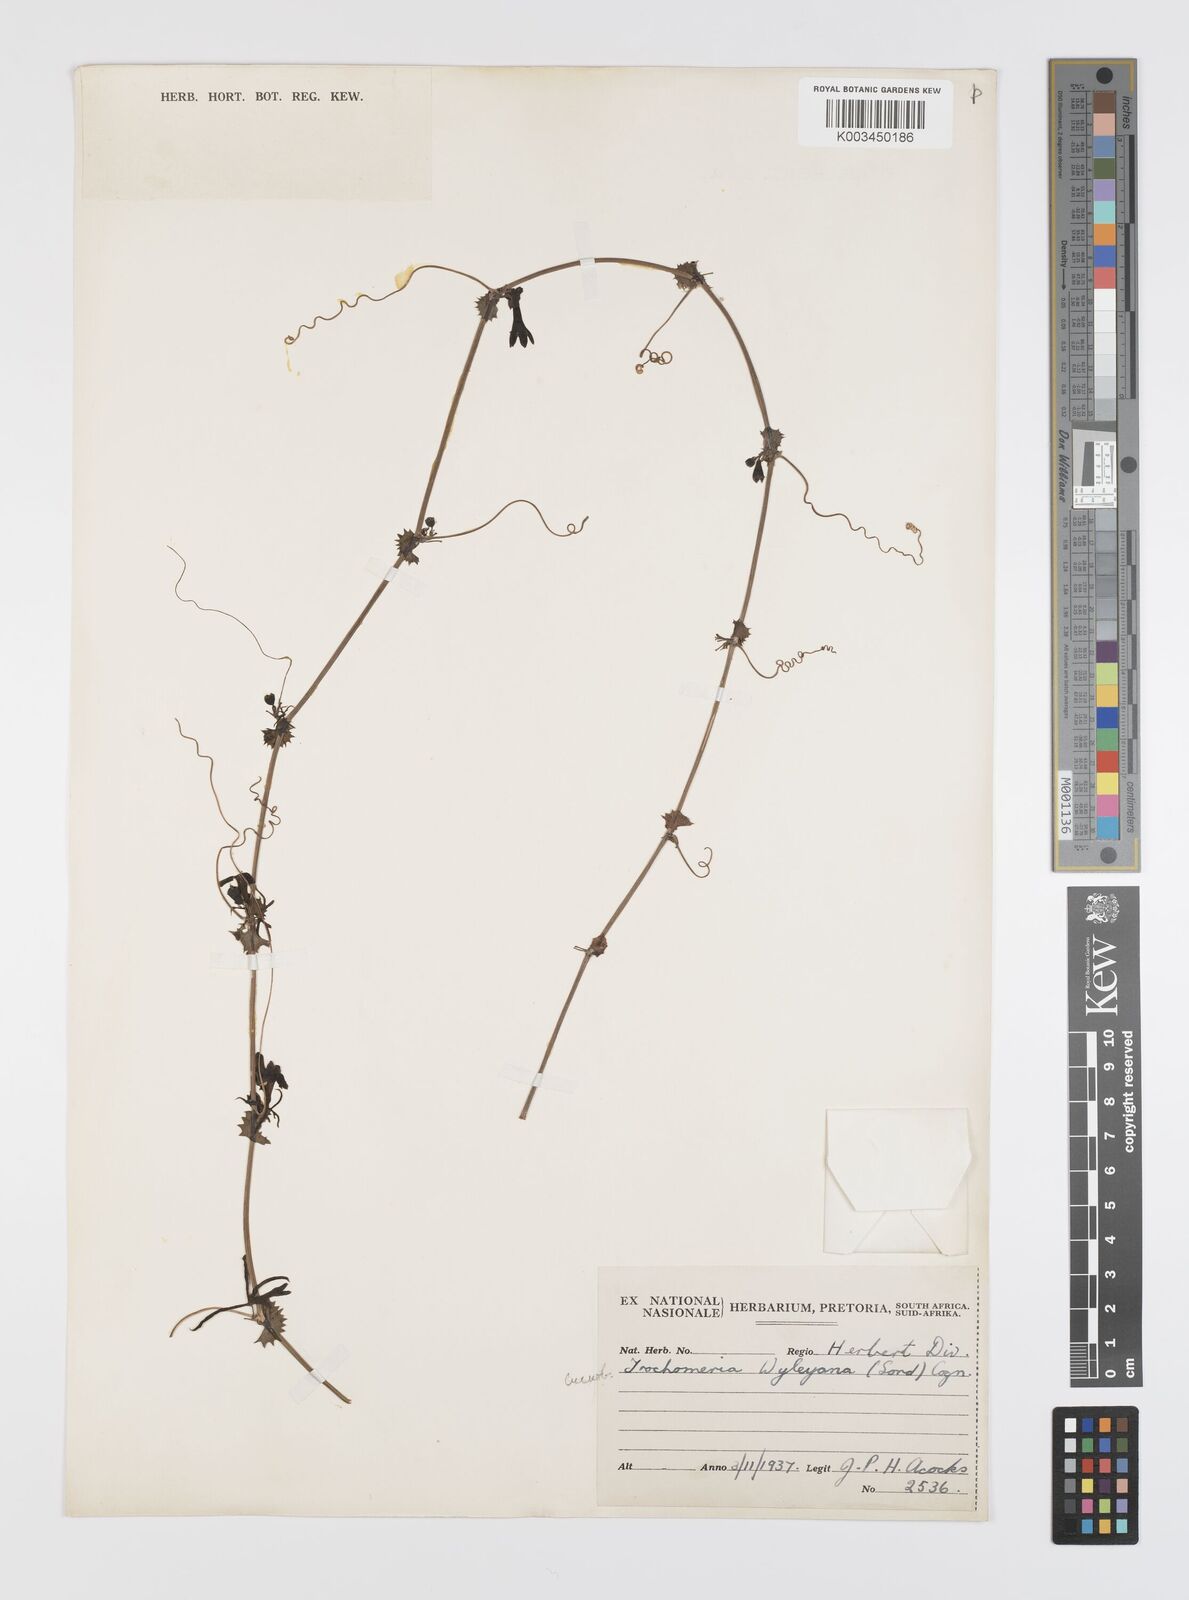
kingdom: Plantae
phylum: Tracheophyta
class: Magnoliopsida
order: Cucurbitales
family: Cucurbitaceae
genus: Trochomeria
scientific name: Trochomeria debilis
